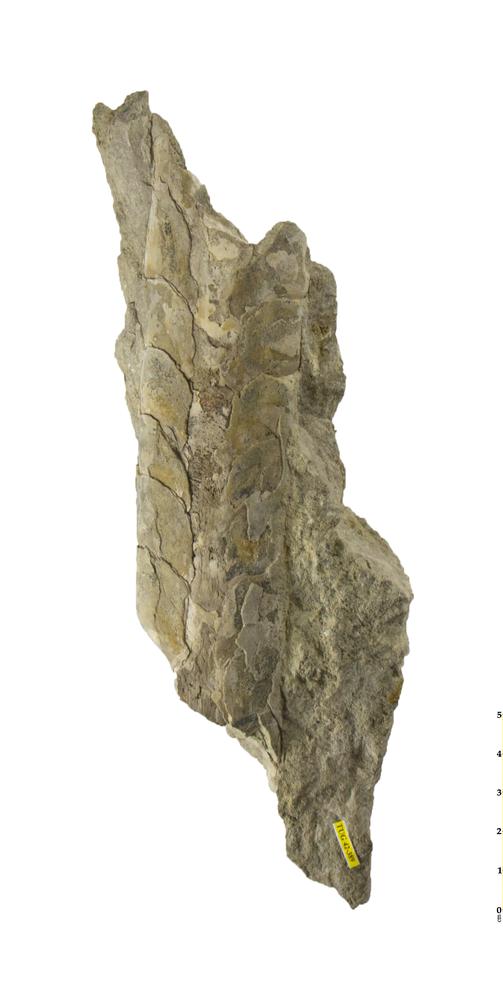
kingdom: Animalia
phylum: Mollusca
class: Cephalopoda
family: Endoceratidae
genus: Proterovaginoceras
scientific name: Proterovaginoceras Endoceras incognitum
